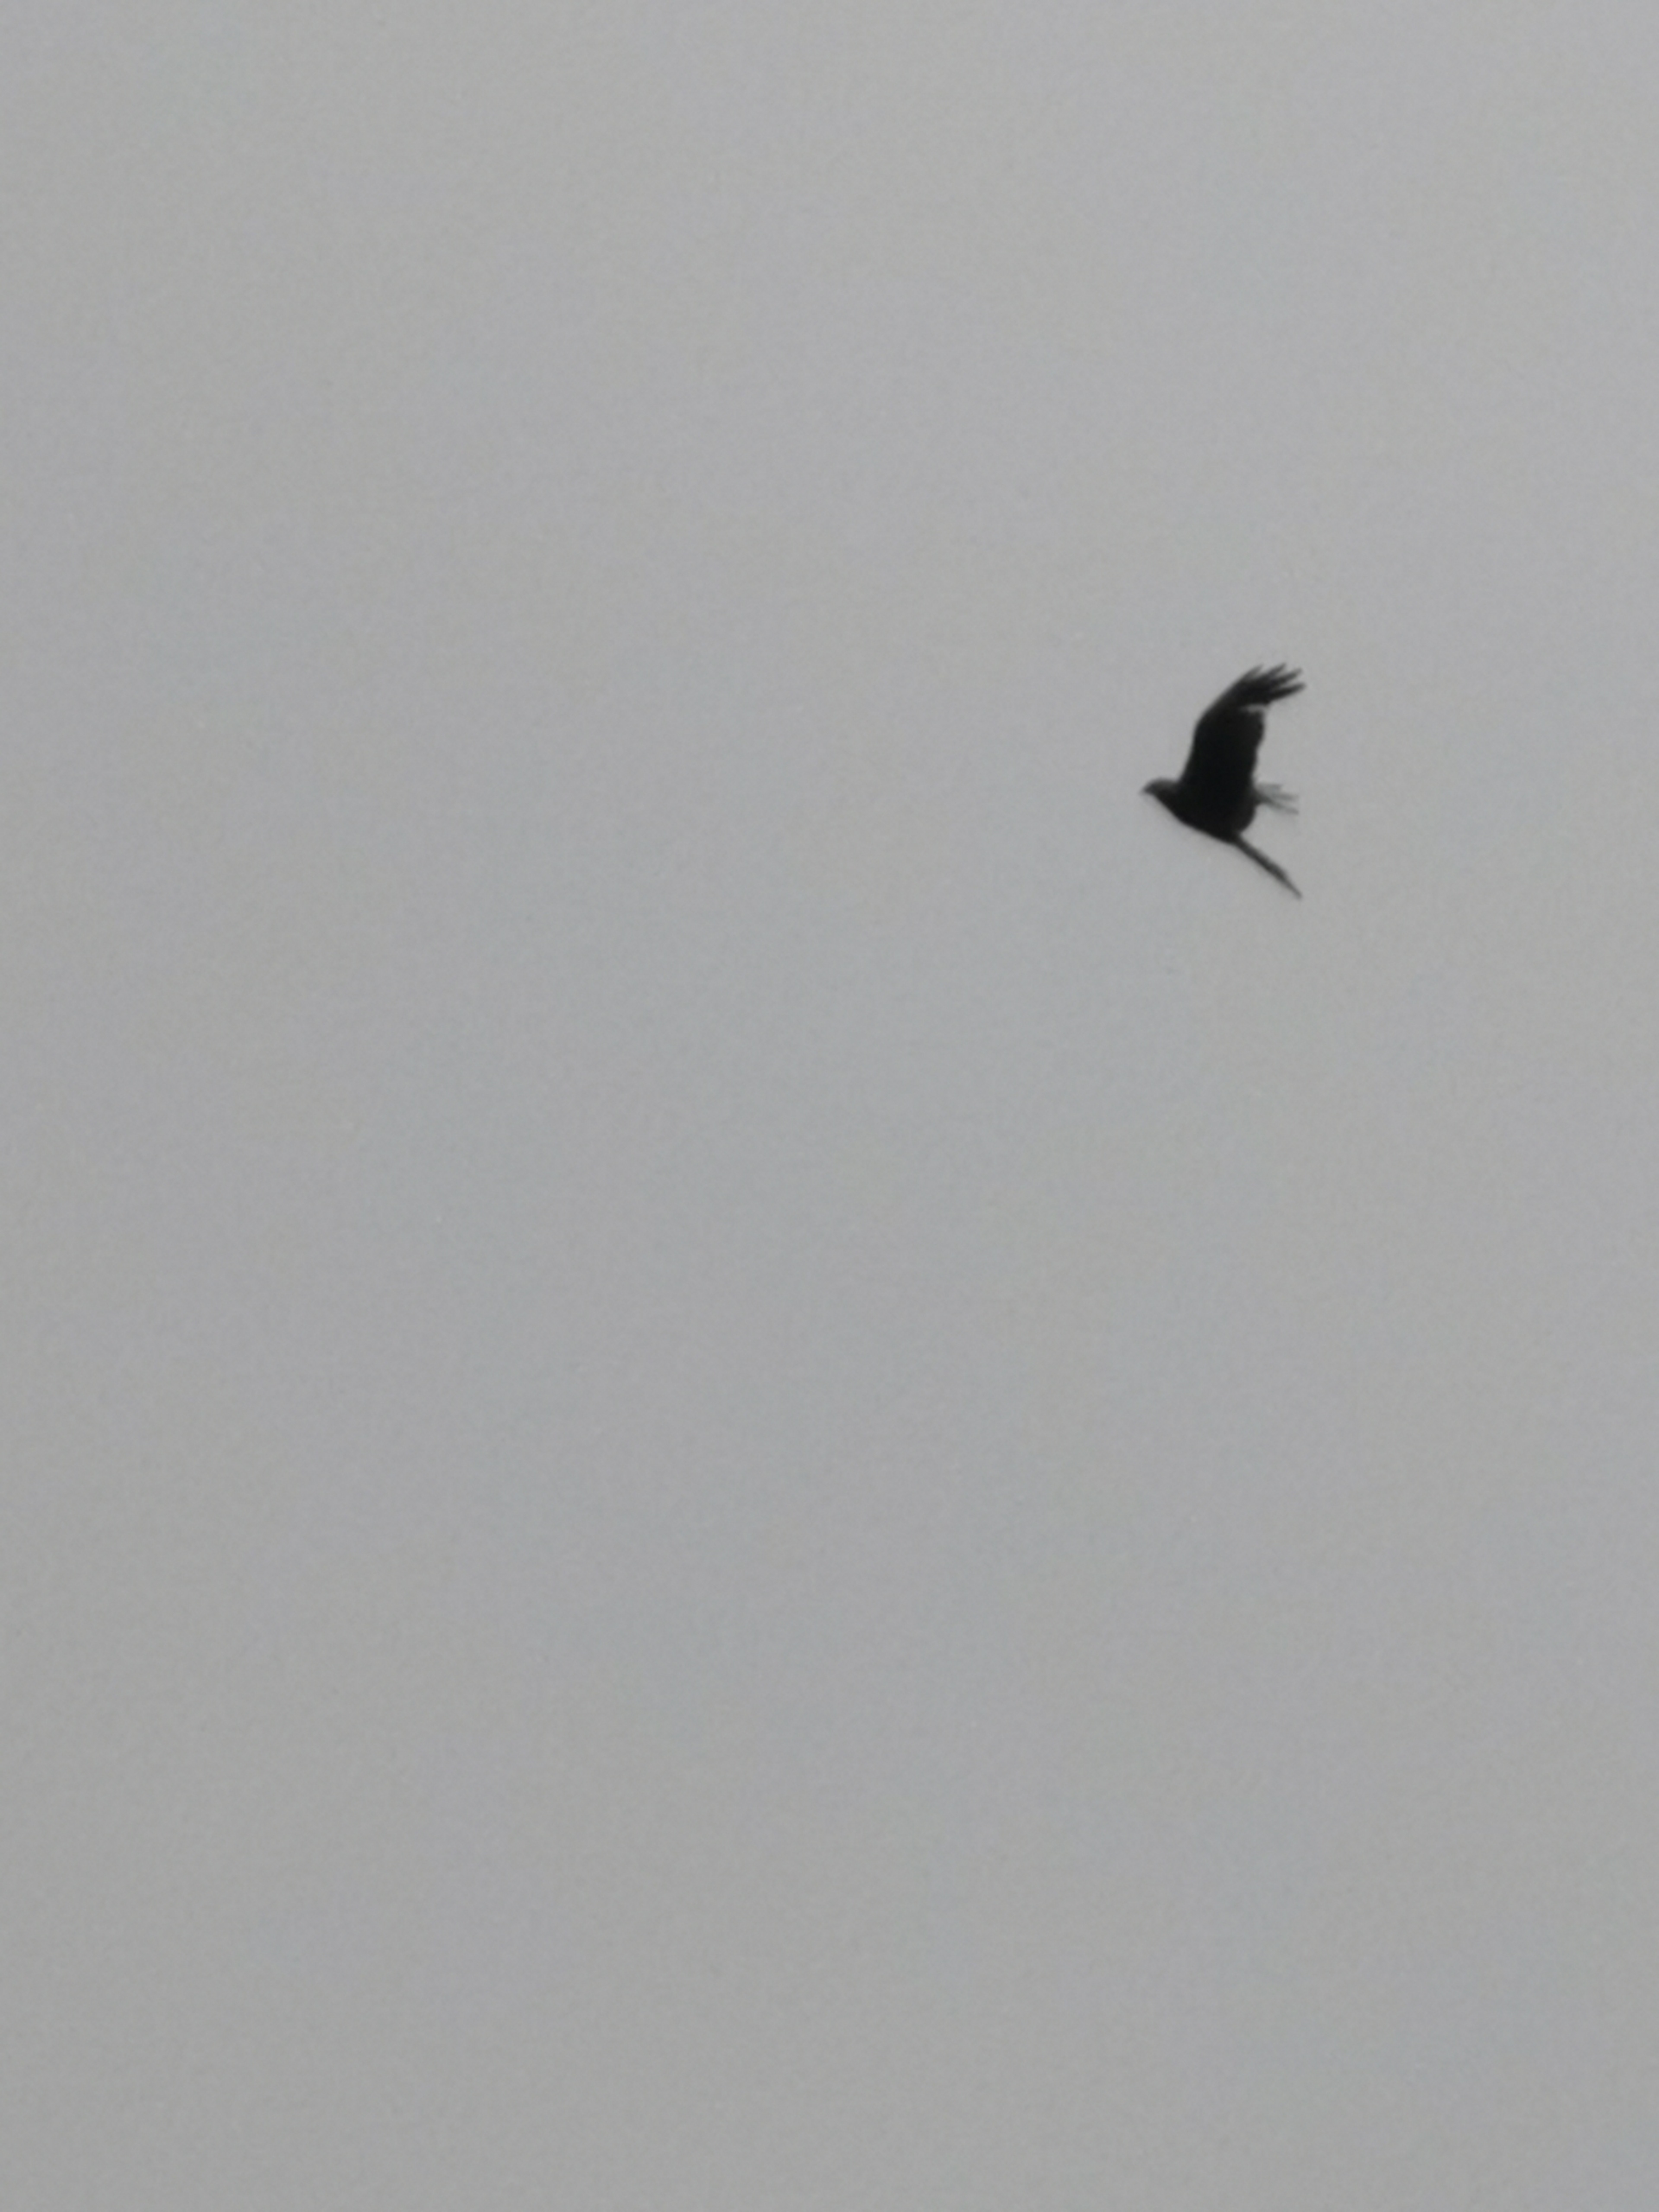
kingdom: Animalia
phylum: Chordata
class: Aves
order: Accipitriformes
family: Accipitridae
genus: Milvus
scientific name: Milvus milvus
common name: Rød glente
